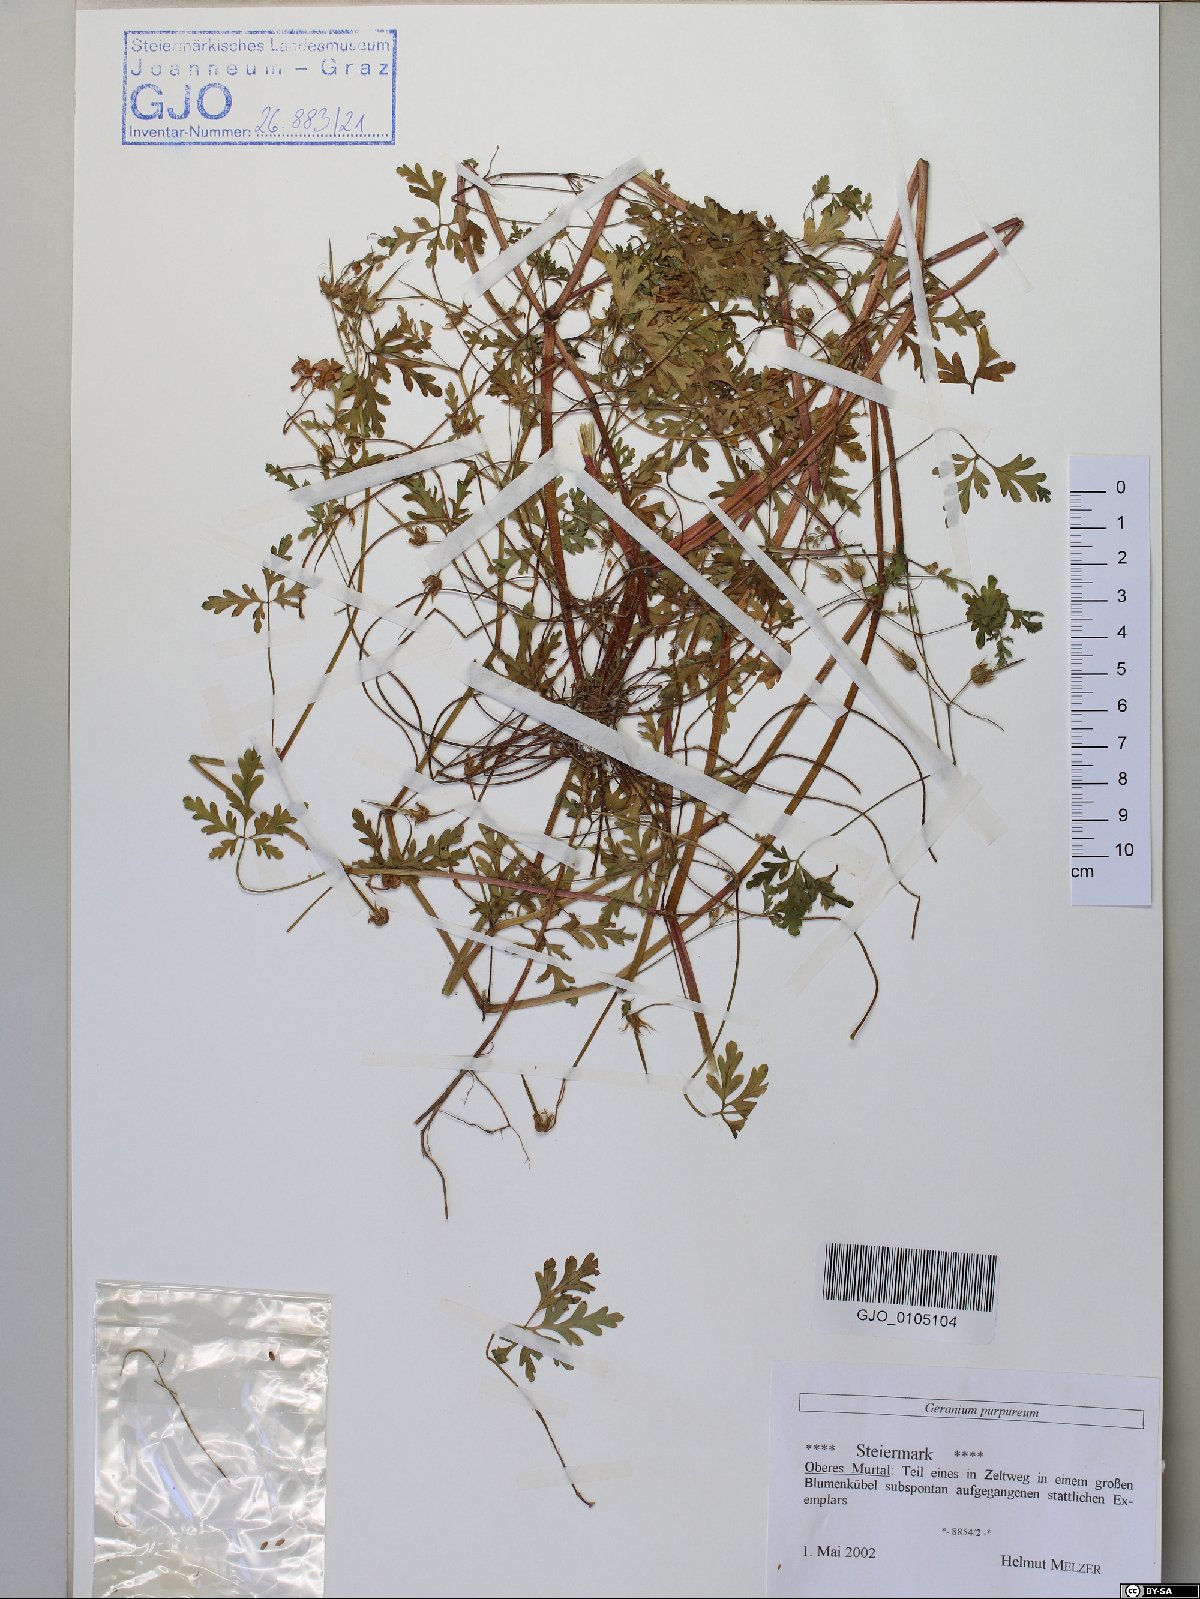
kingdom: Plantae
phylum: Tracheophyta
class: Magnoliopsida
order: Geraniales
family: Geraniaceae
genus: Geranium
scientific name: Geranium purpureum
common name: Little-robin
